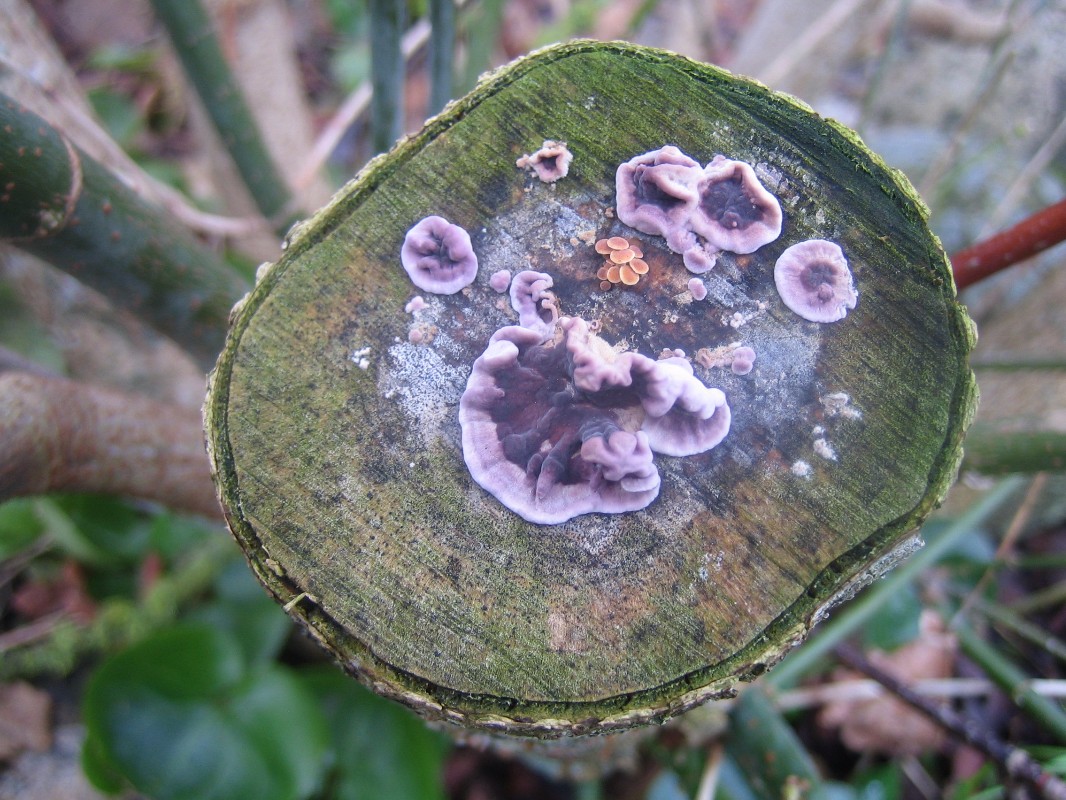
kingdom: Fungi
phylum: Basidiomycota
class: Agaricomycetes
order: Agaricales
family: Cyphellaceae
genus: Chondrostereum
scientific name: Chondrostereum purpureum
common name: purpurlædersvamp
